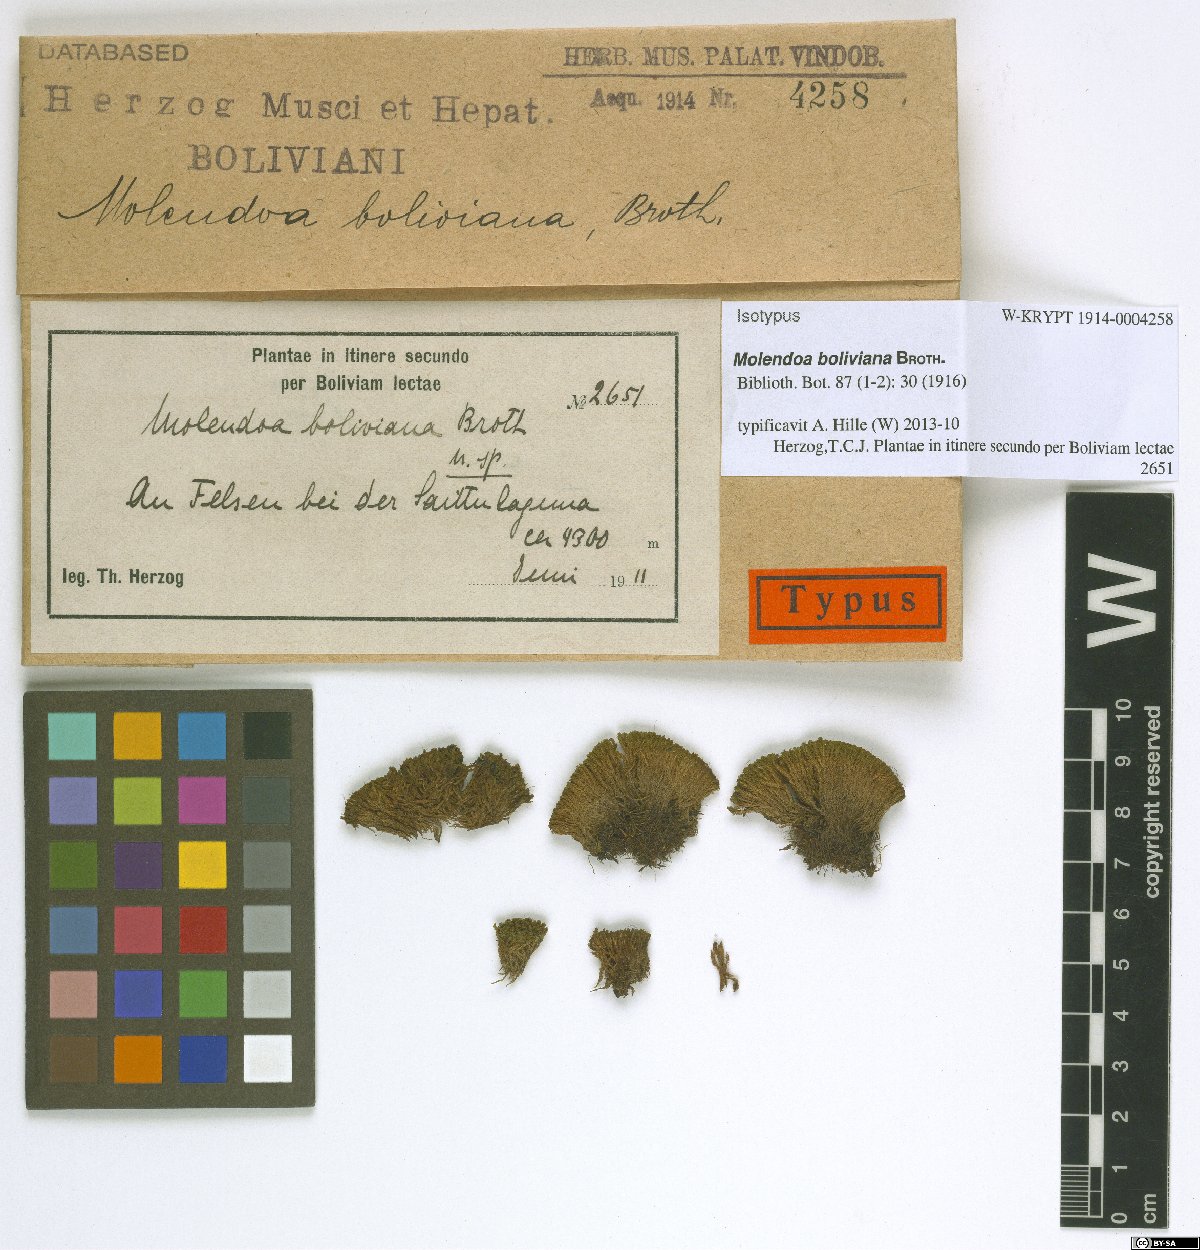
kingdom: Plantae
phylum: Bryophyta
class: Bryopsida
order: Pottiales
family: Pottiaceae
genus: Molendoa
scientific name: Molendoa sendtneriana
